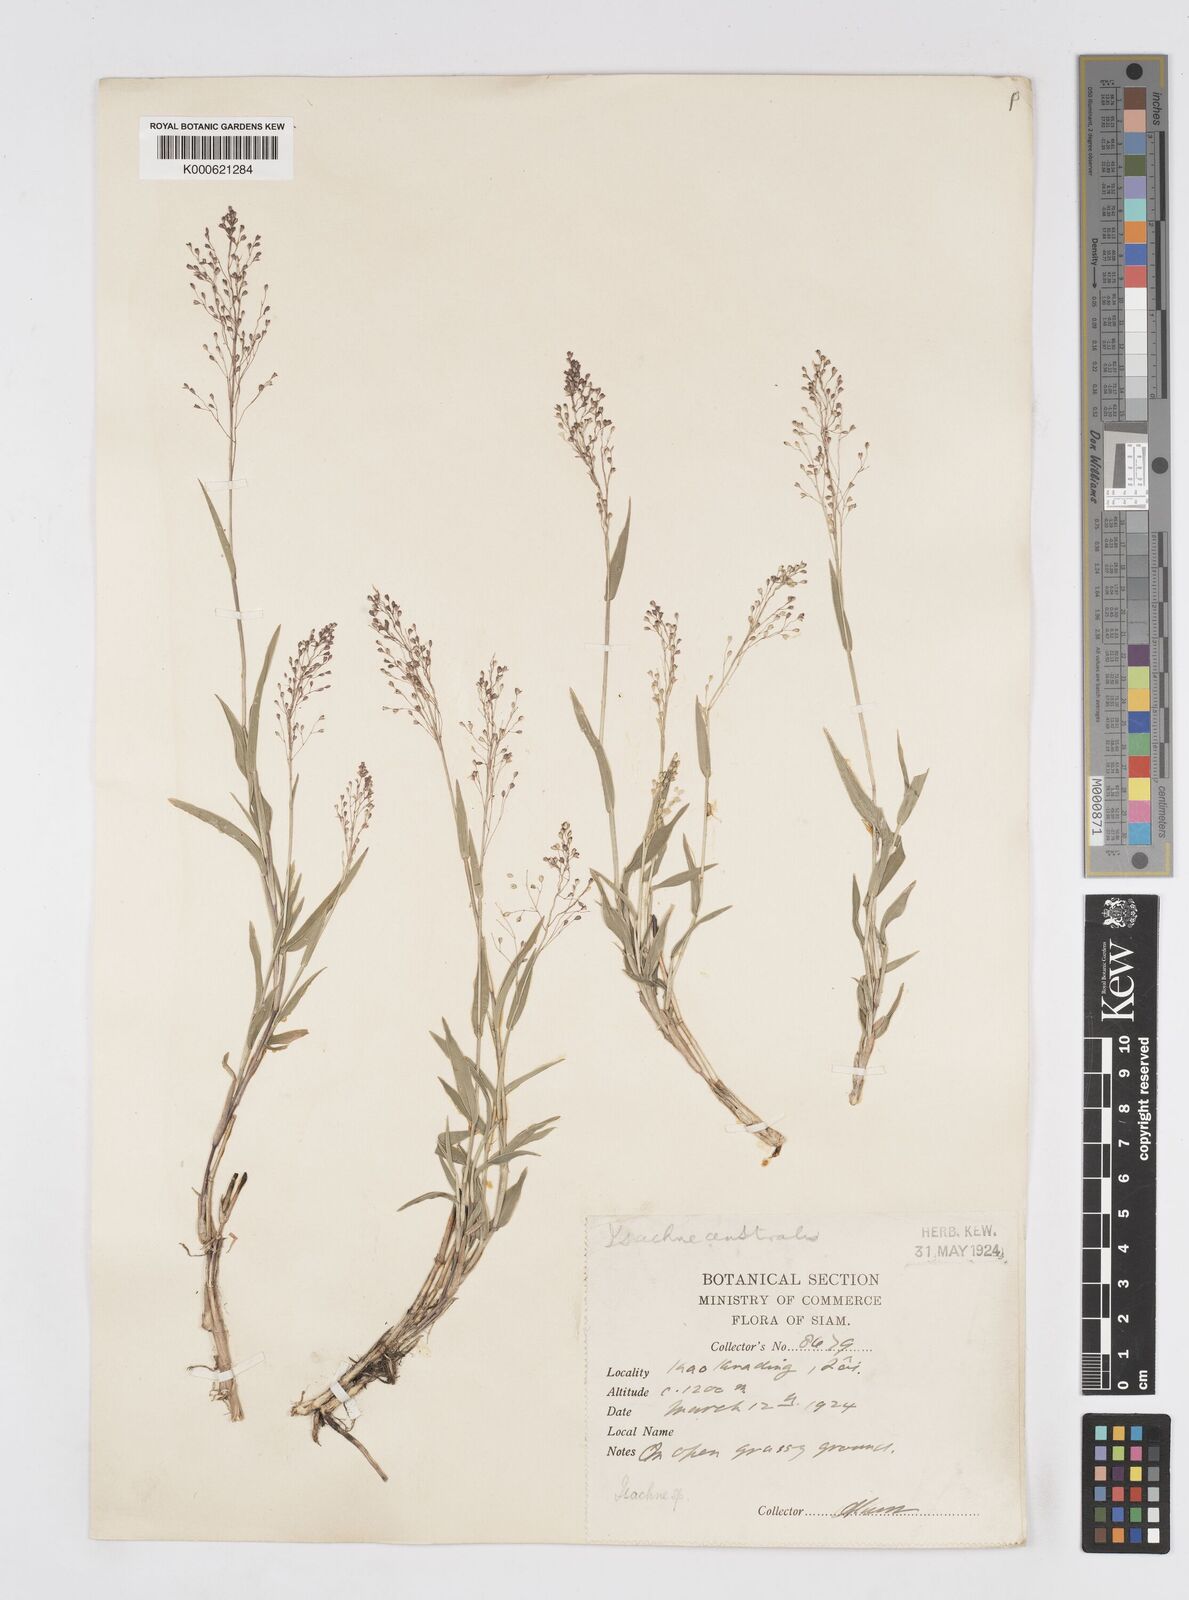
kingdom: Plantae
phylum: Tracheophyta
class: Liliopsida
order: Poales
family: Poaceae
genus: Isachne
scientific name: Isachne smitinandiana
